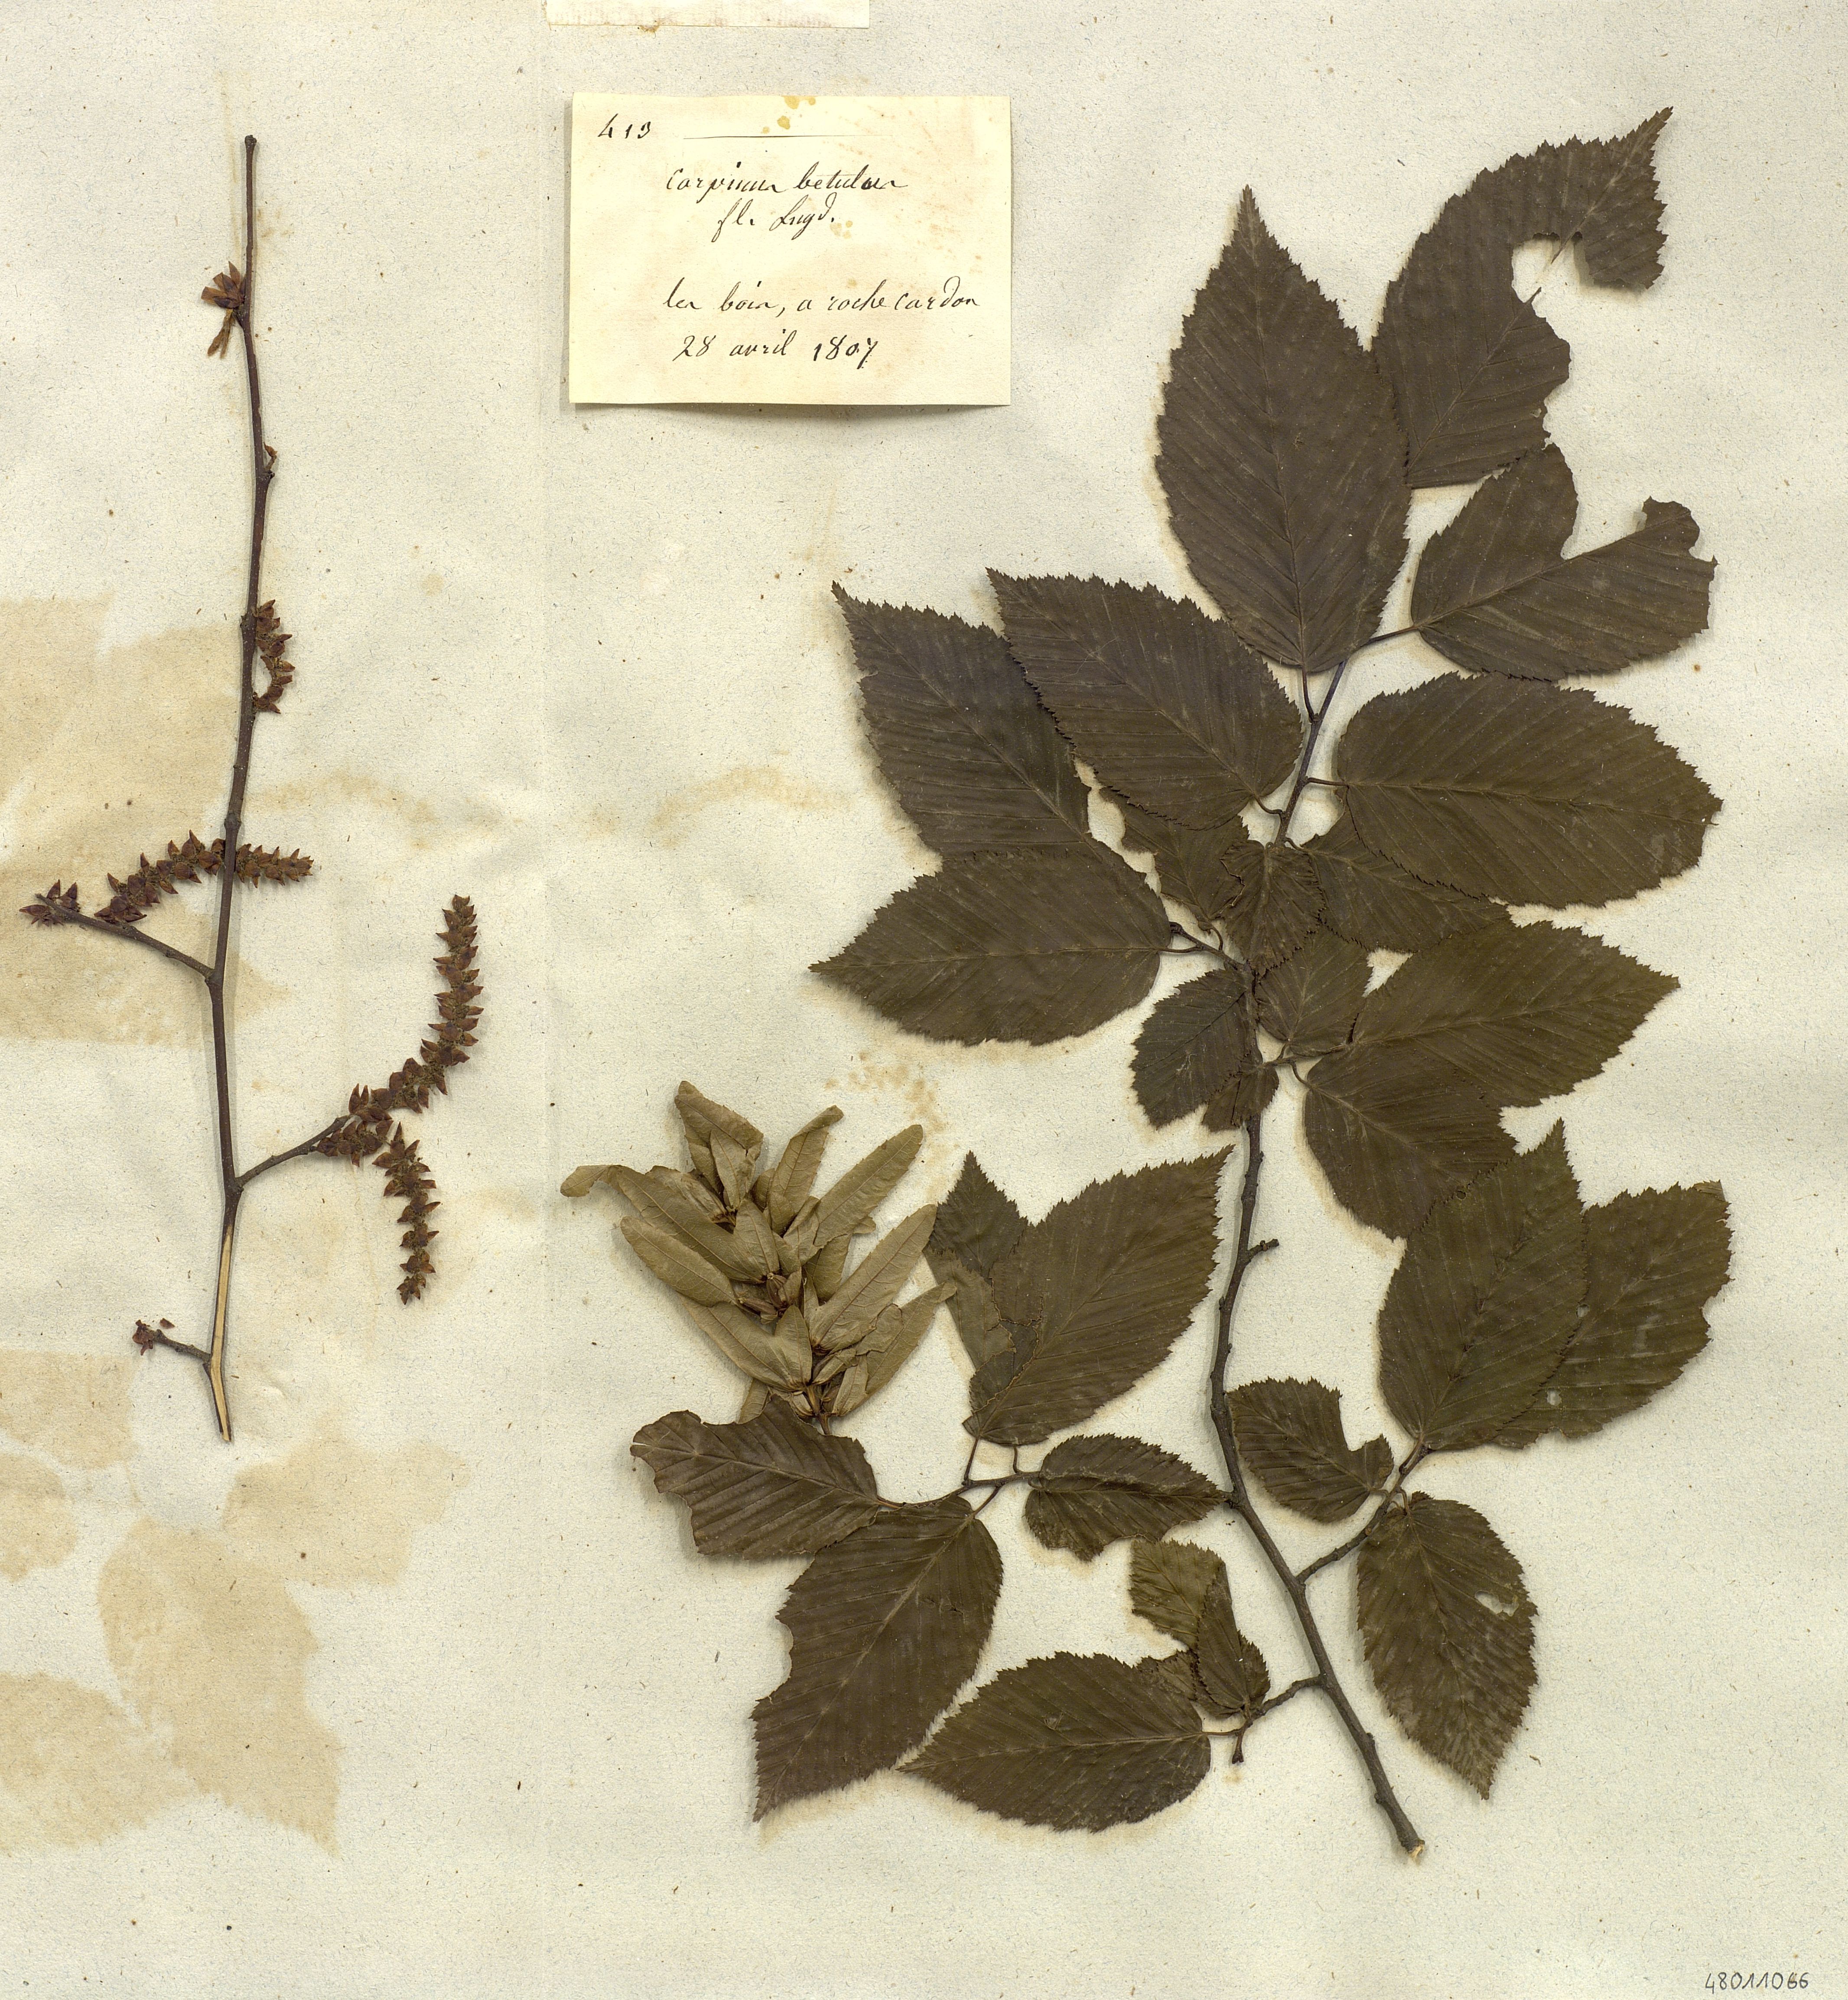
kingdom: Plantae
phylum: Tracheophyta
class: Magnoliopsida
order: Fagales
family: Betulaceae
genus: Carpinus
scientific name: Carpinus betulus
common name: Hornbeam
